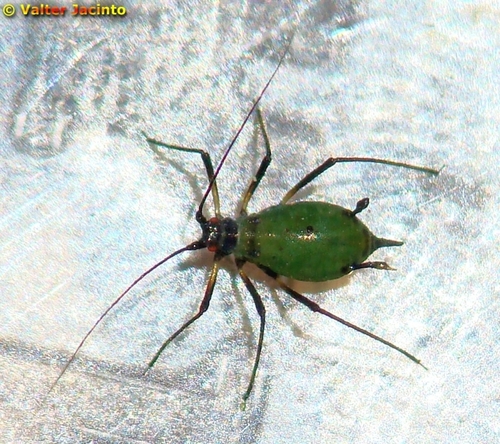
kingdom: Animalia
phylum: Arthropoda
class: Insecta
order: Hemiptera
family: Aphididae
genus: Megoura
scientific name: Megoura viciae
